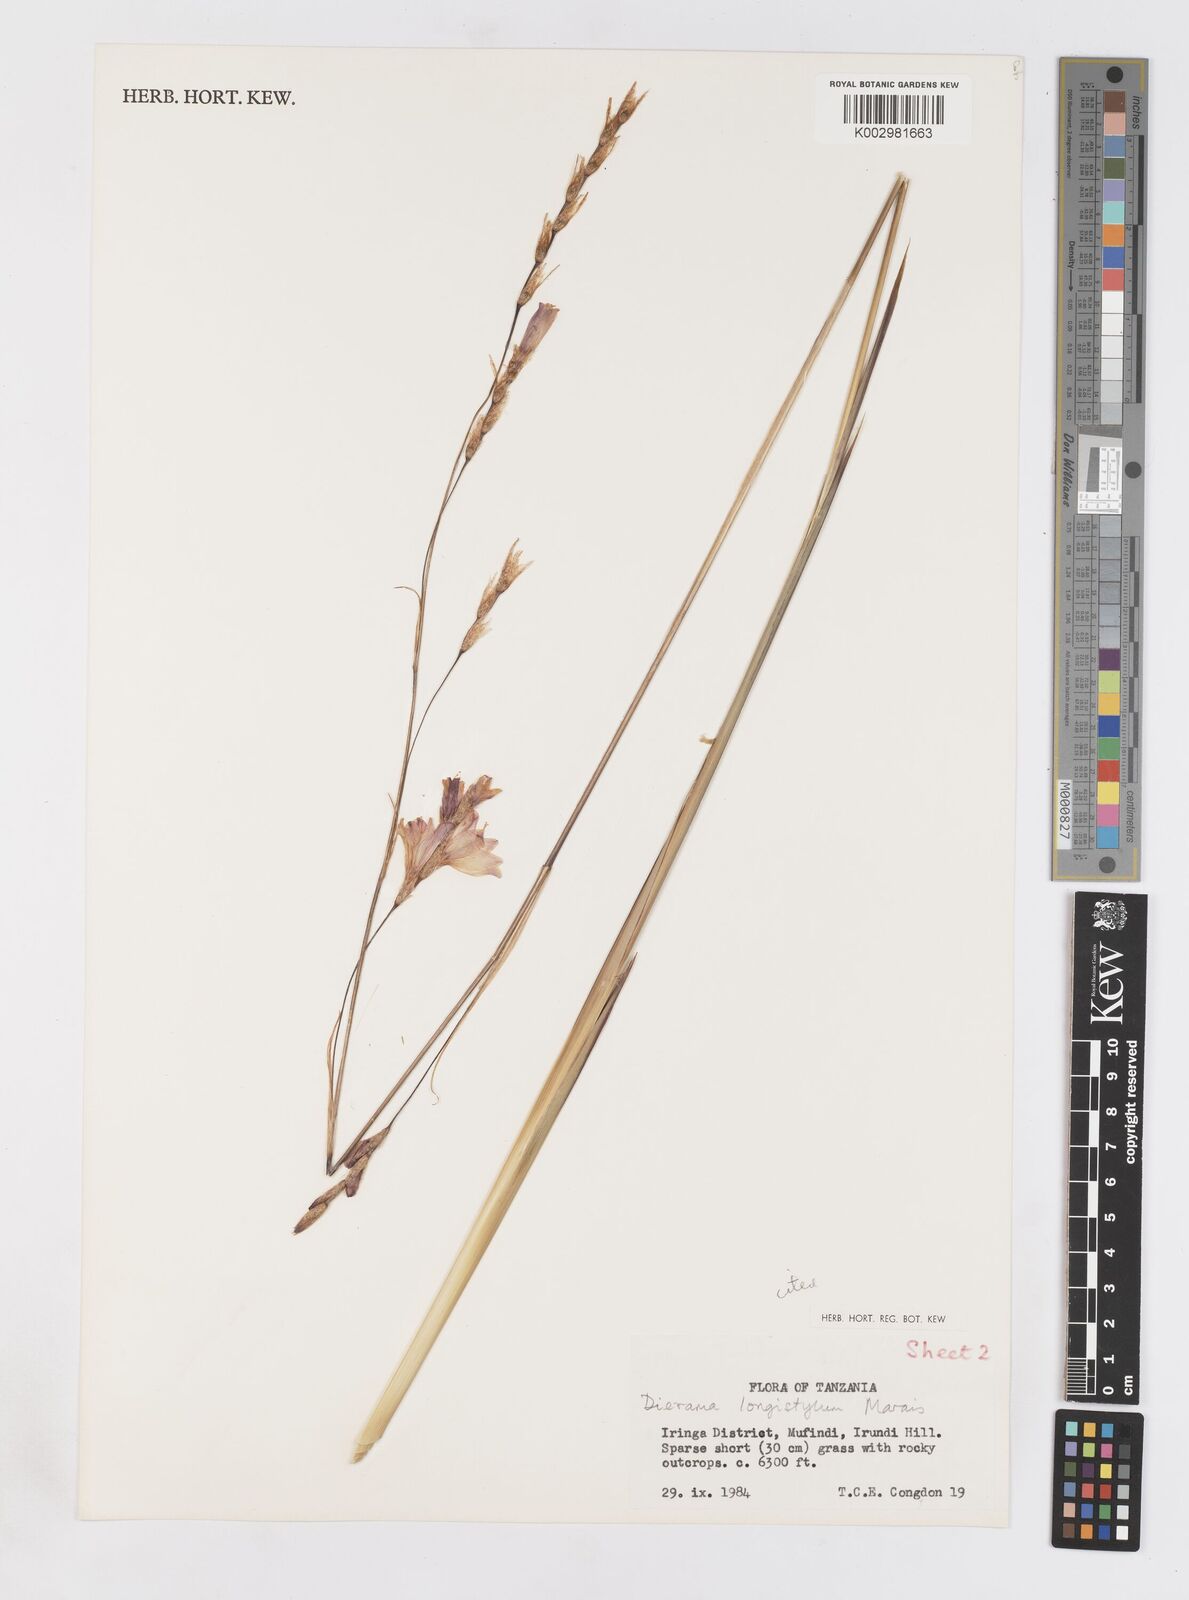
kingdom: Plantae
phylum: Tracheophyta
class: Liliopsida
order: Asparagales
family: Iridaceae
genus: Dierama
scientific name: Dierama longistylum
